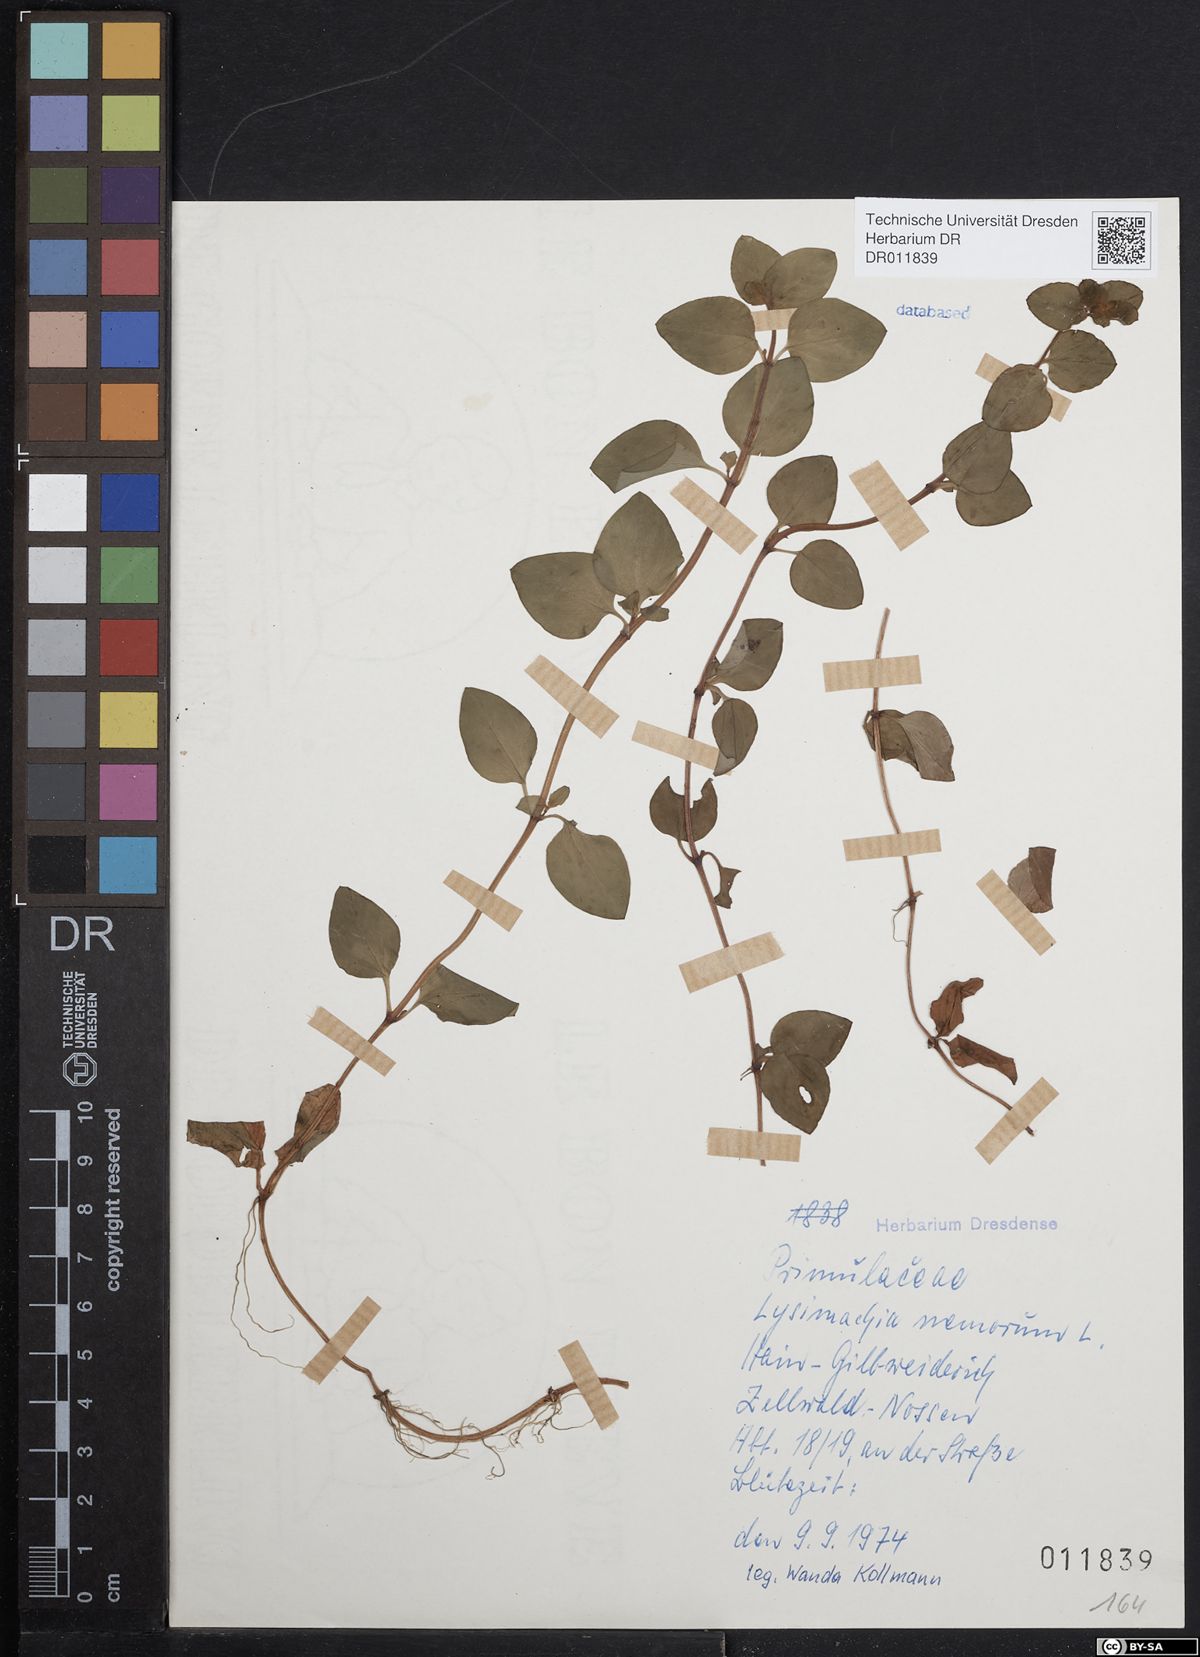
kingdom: Plantae
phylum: Tracheophyta
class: Magnoliopsida
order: Ericales
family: Primulaceae
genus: Lysimachia
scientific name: Lysimachia nemorum
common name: Yellow pimpernel
